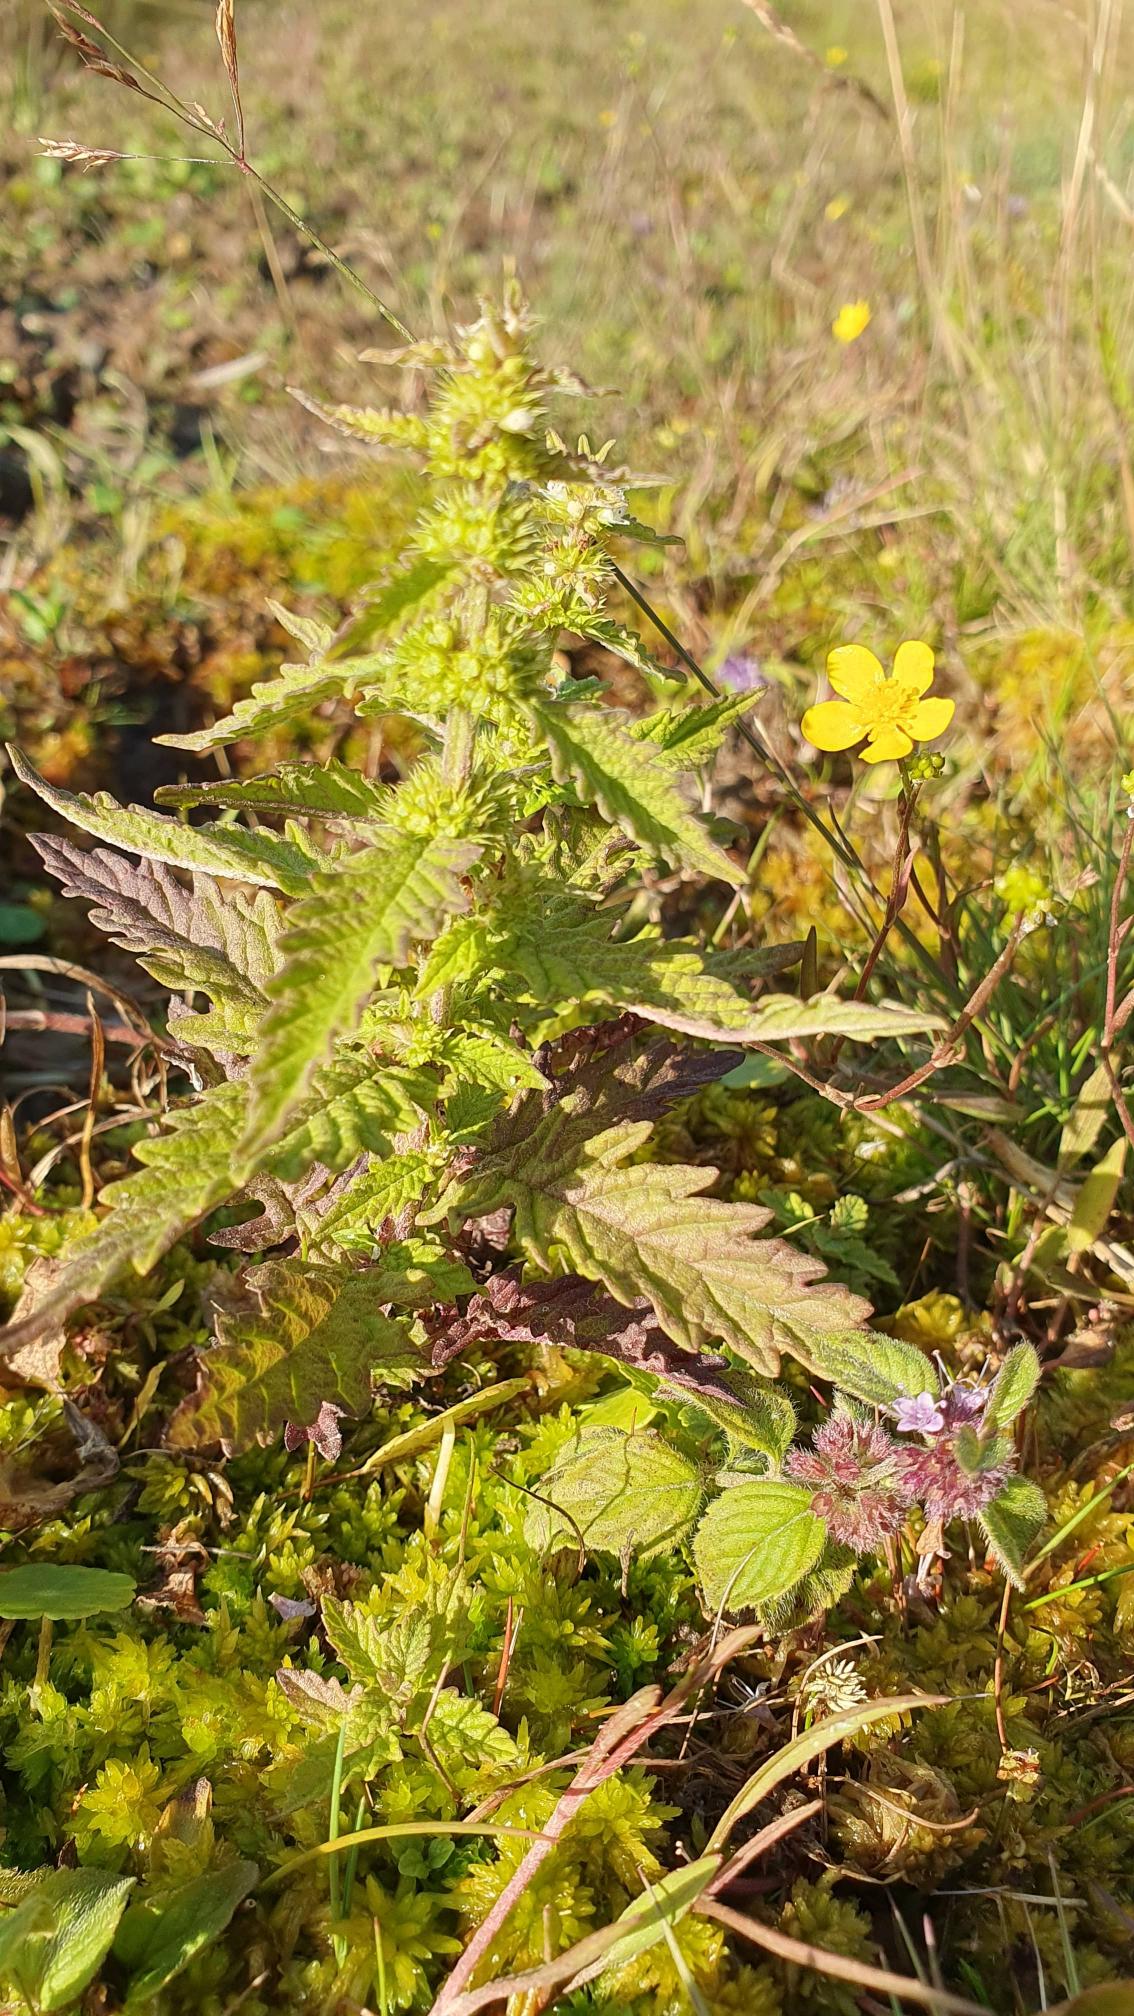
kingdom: Plantae
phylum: Tracheophyta
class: Magnoliopsida
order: Lamiales
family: Lamiaceae
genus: Lycopus
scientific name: Lycopus europaeus
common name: Sværtevæld
